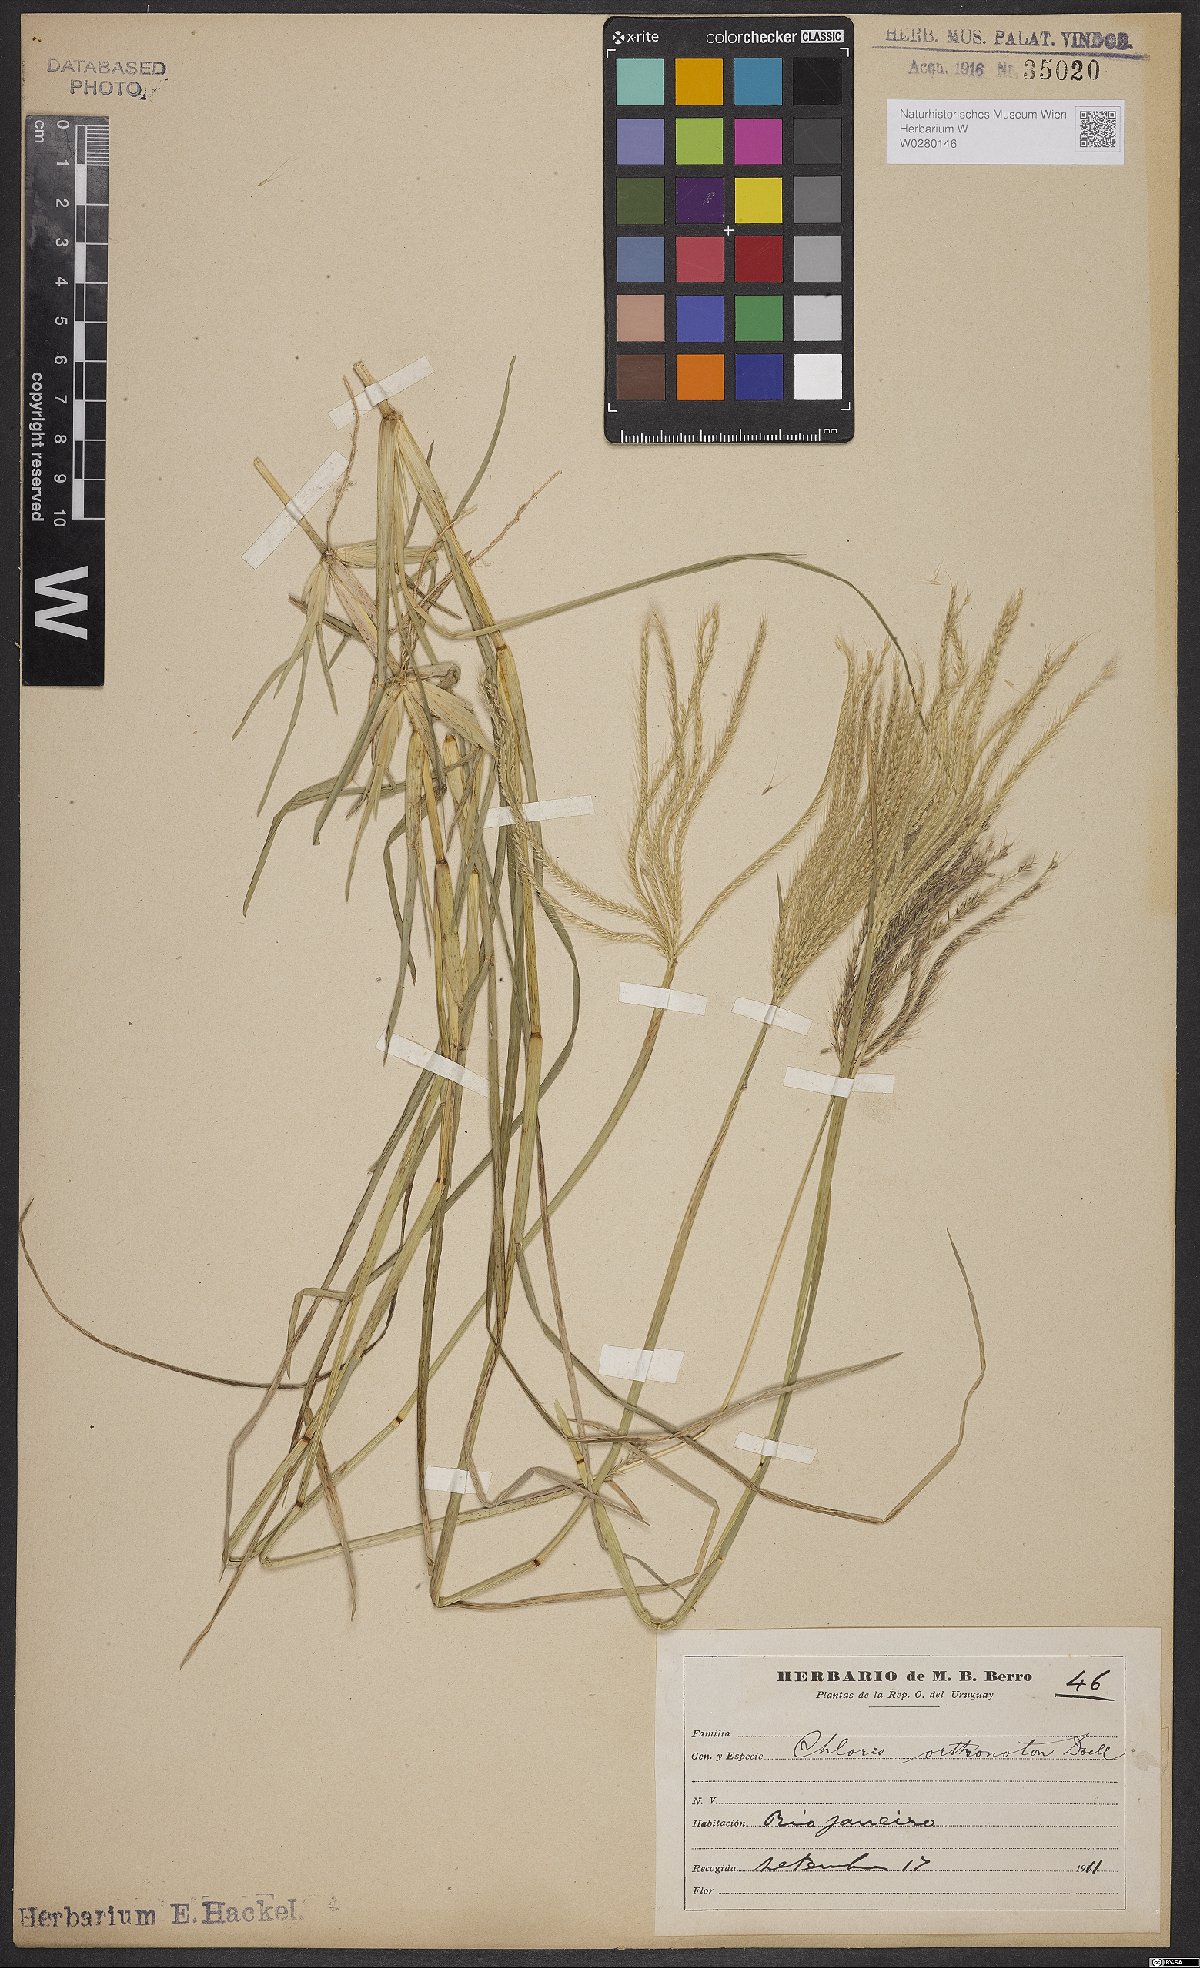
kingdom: Plantae
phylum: Tracheophyta
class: Liliopsida
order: Poales
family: Poaceae
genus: Chloris
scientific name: Chloris orthonoton
